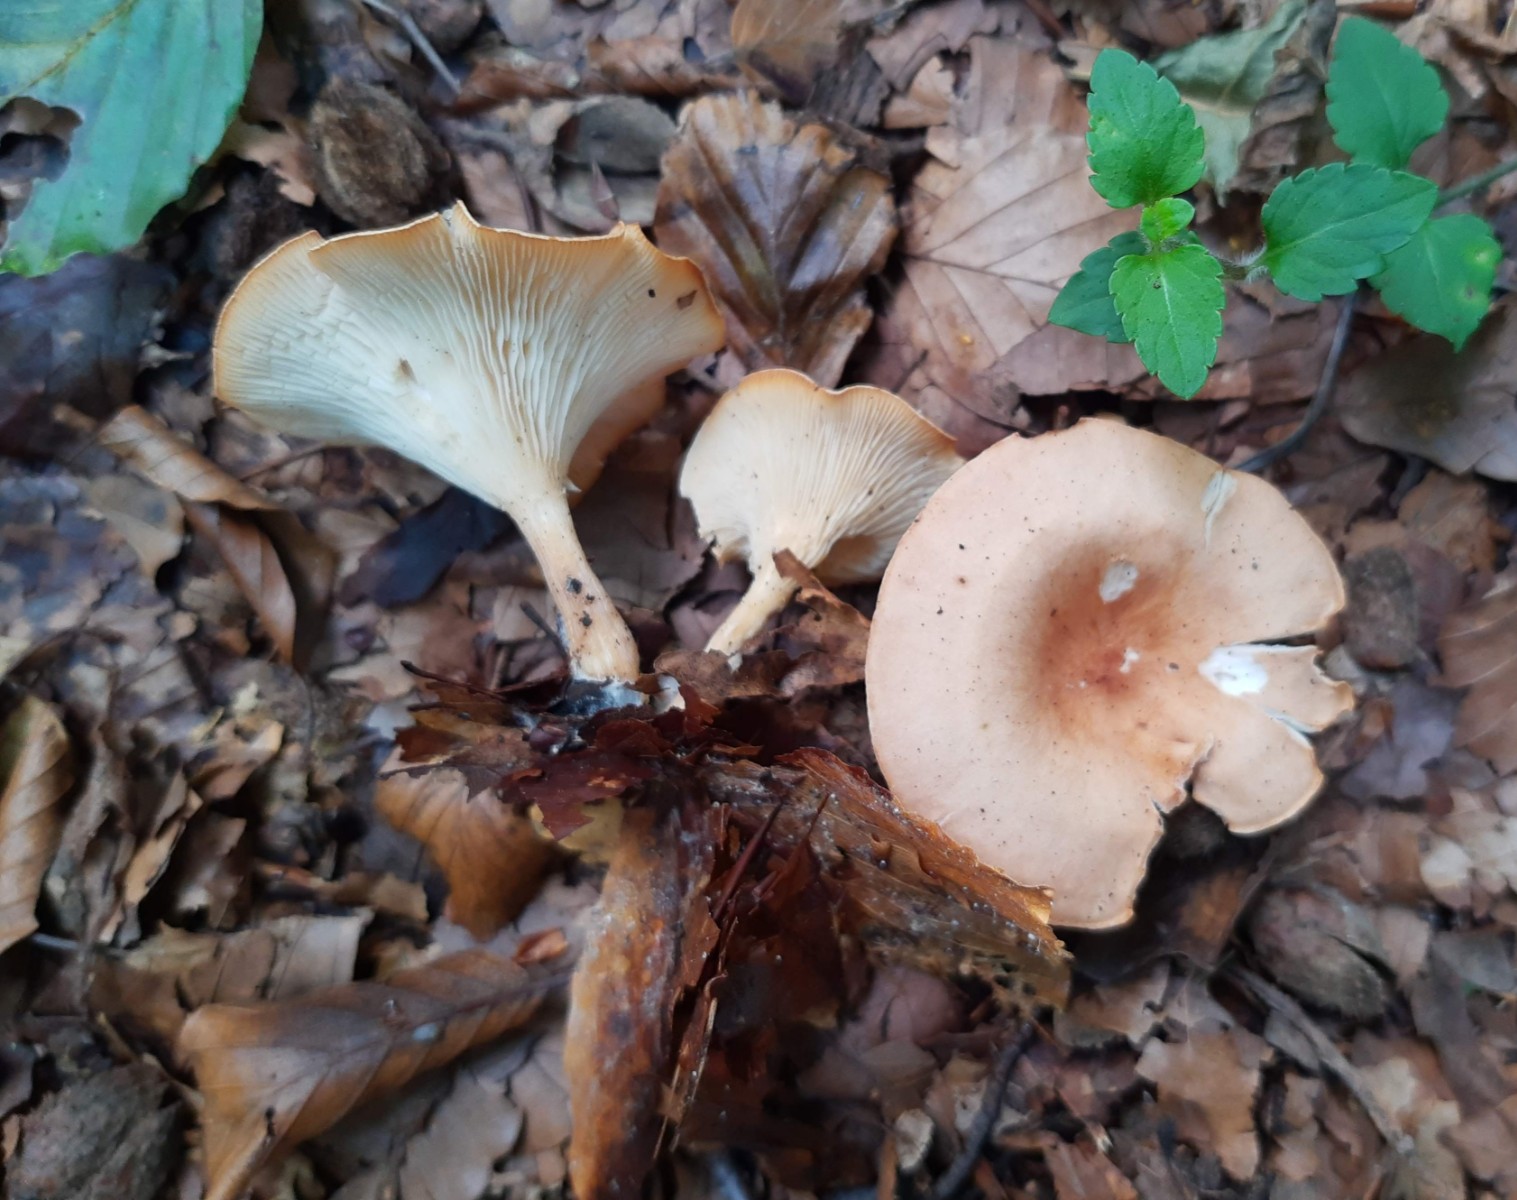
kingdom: Fungi
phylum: Basidiomycota
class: Agaricomycetes
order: Agaricales
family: Tricholomataceae
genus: Infundibulicybe
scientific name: Infundibulicybe gibba
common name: almindelig tragthat
